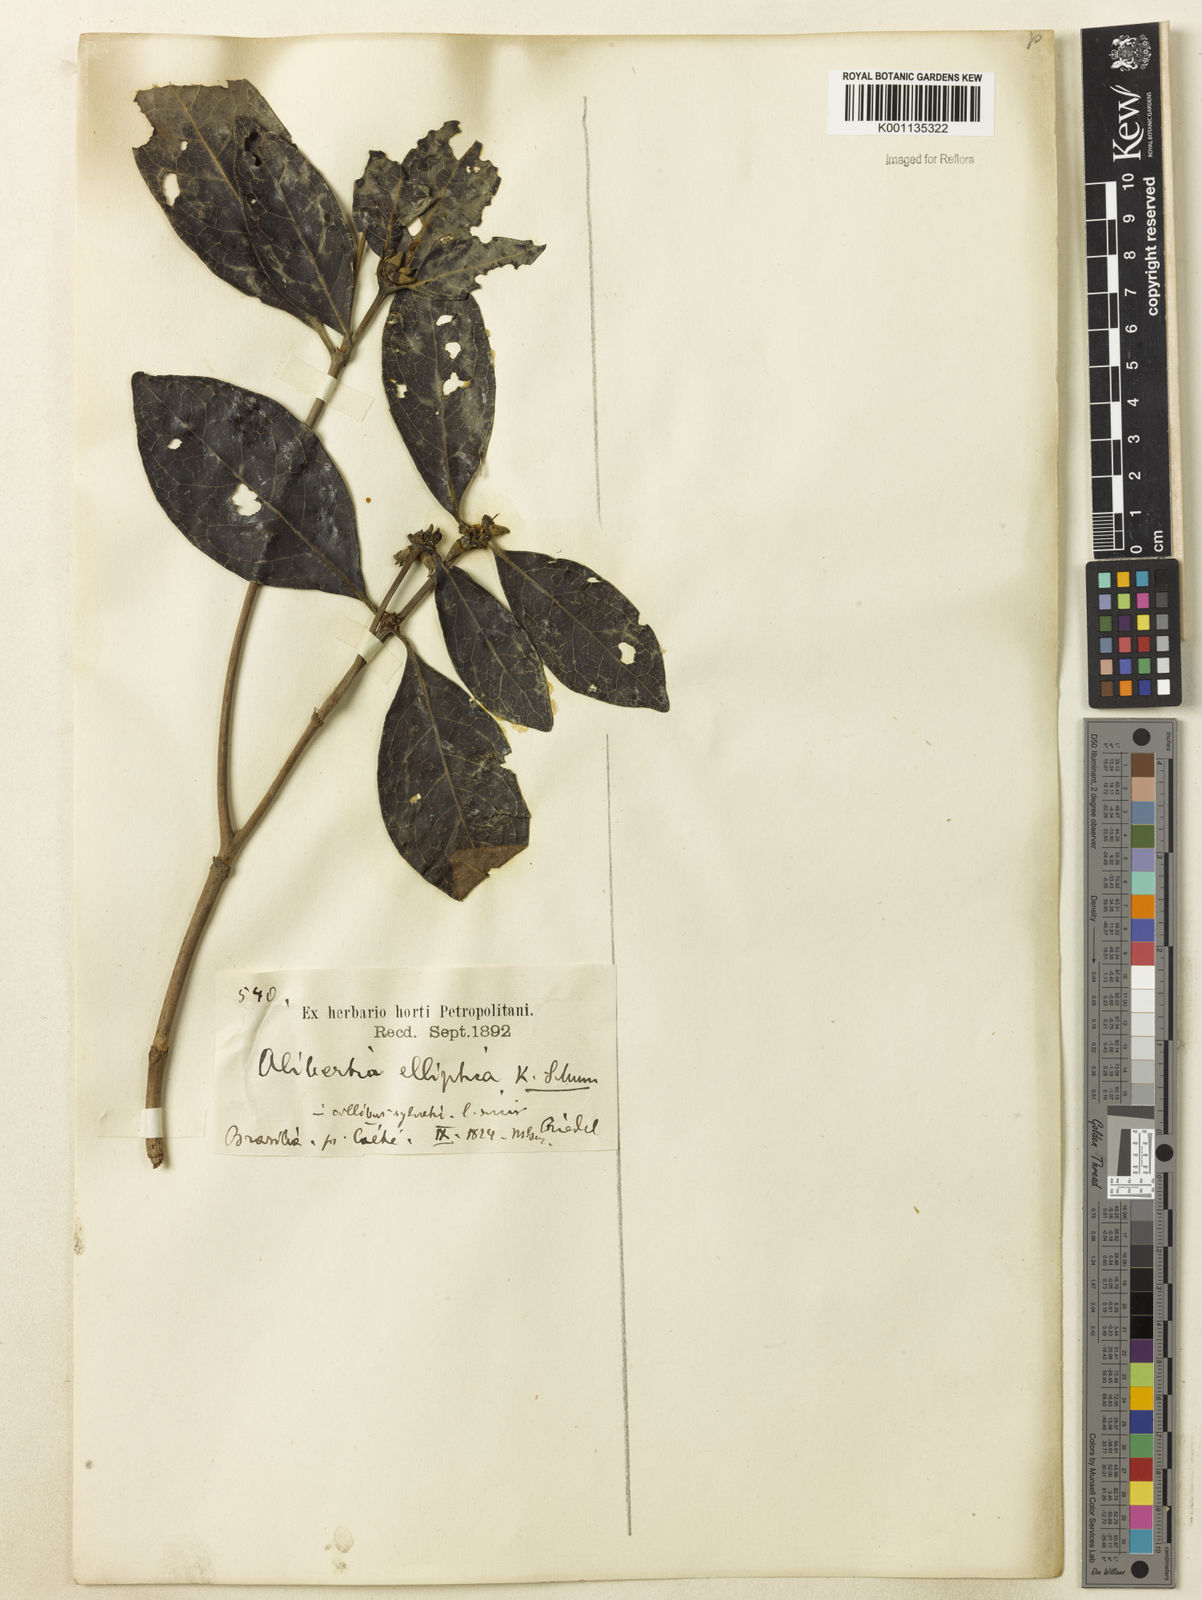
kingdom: Plantae
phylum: Tracheophyta
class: Magnoliopsida
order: Gentianales
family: Rubiaceae
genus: Cordiera
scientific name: Cordiera elliptica
